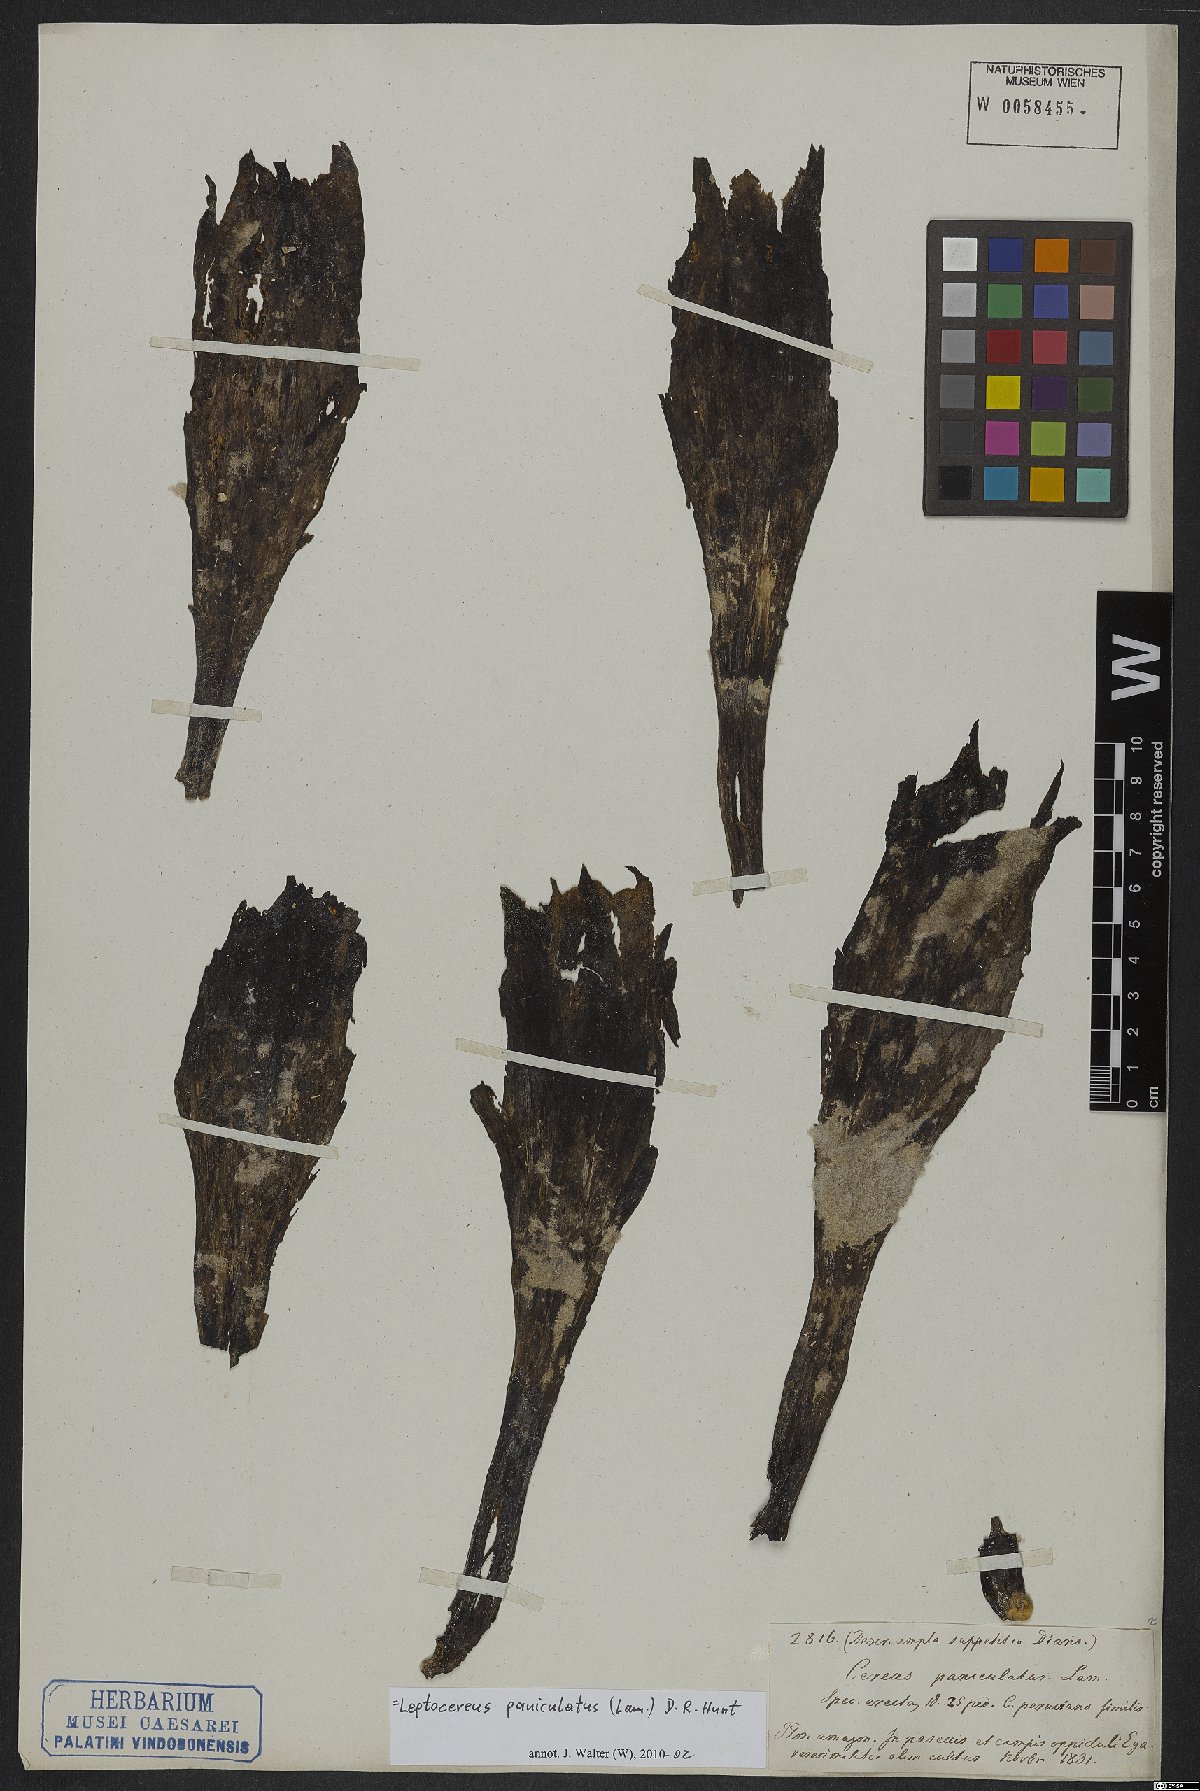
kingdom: Plantae
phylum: Tracheophyta
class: Magnoliopsida
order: Caryophyllales
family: Cactaceae
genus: Leptocereus
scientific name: Leptocereus paniculatus
